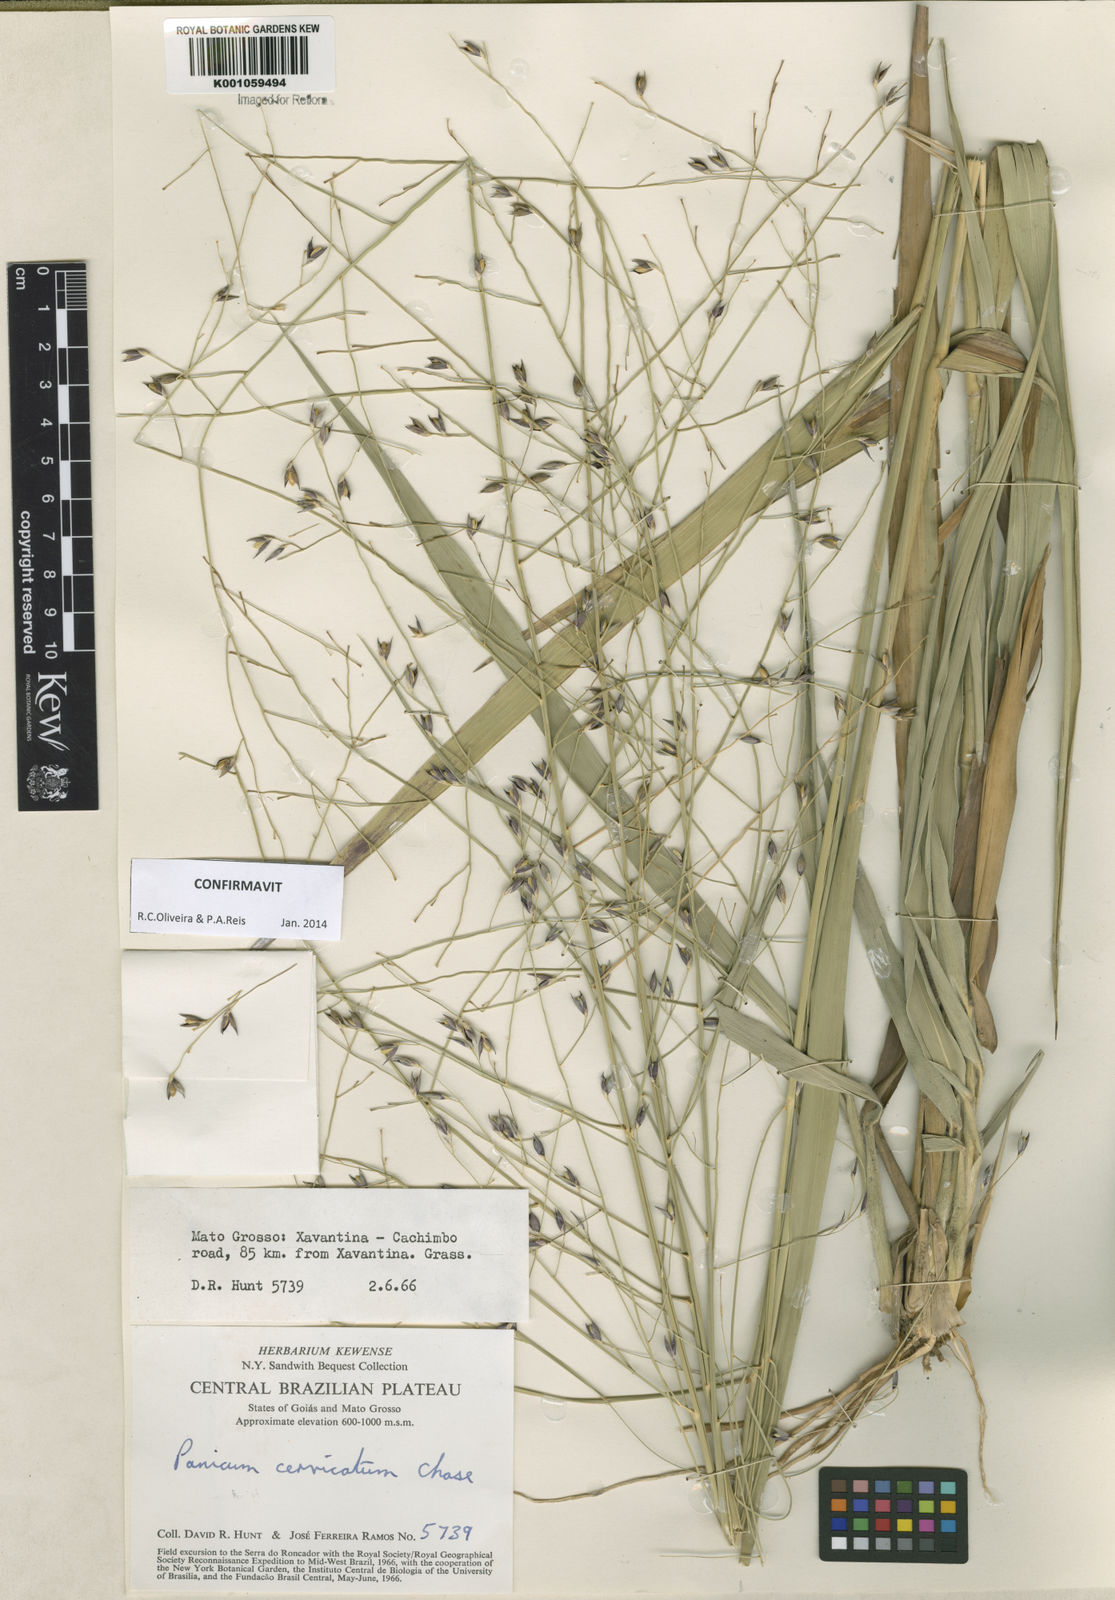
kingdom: Plantae
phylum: Tracheophyta
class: Liliopsida
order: Poales
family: Poaceae
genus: Panicum
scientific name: Panicum cervicatum
